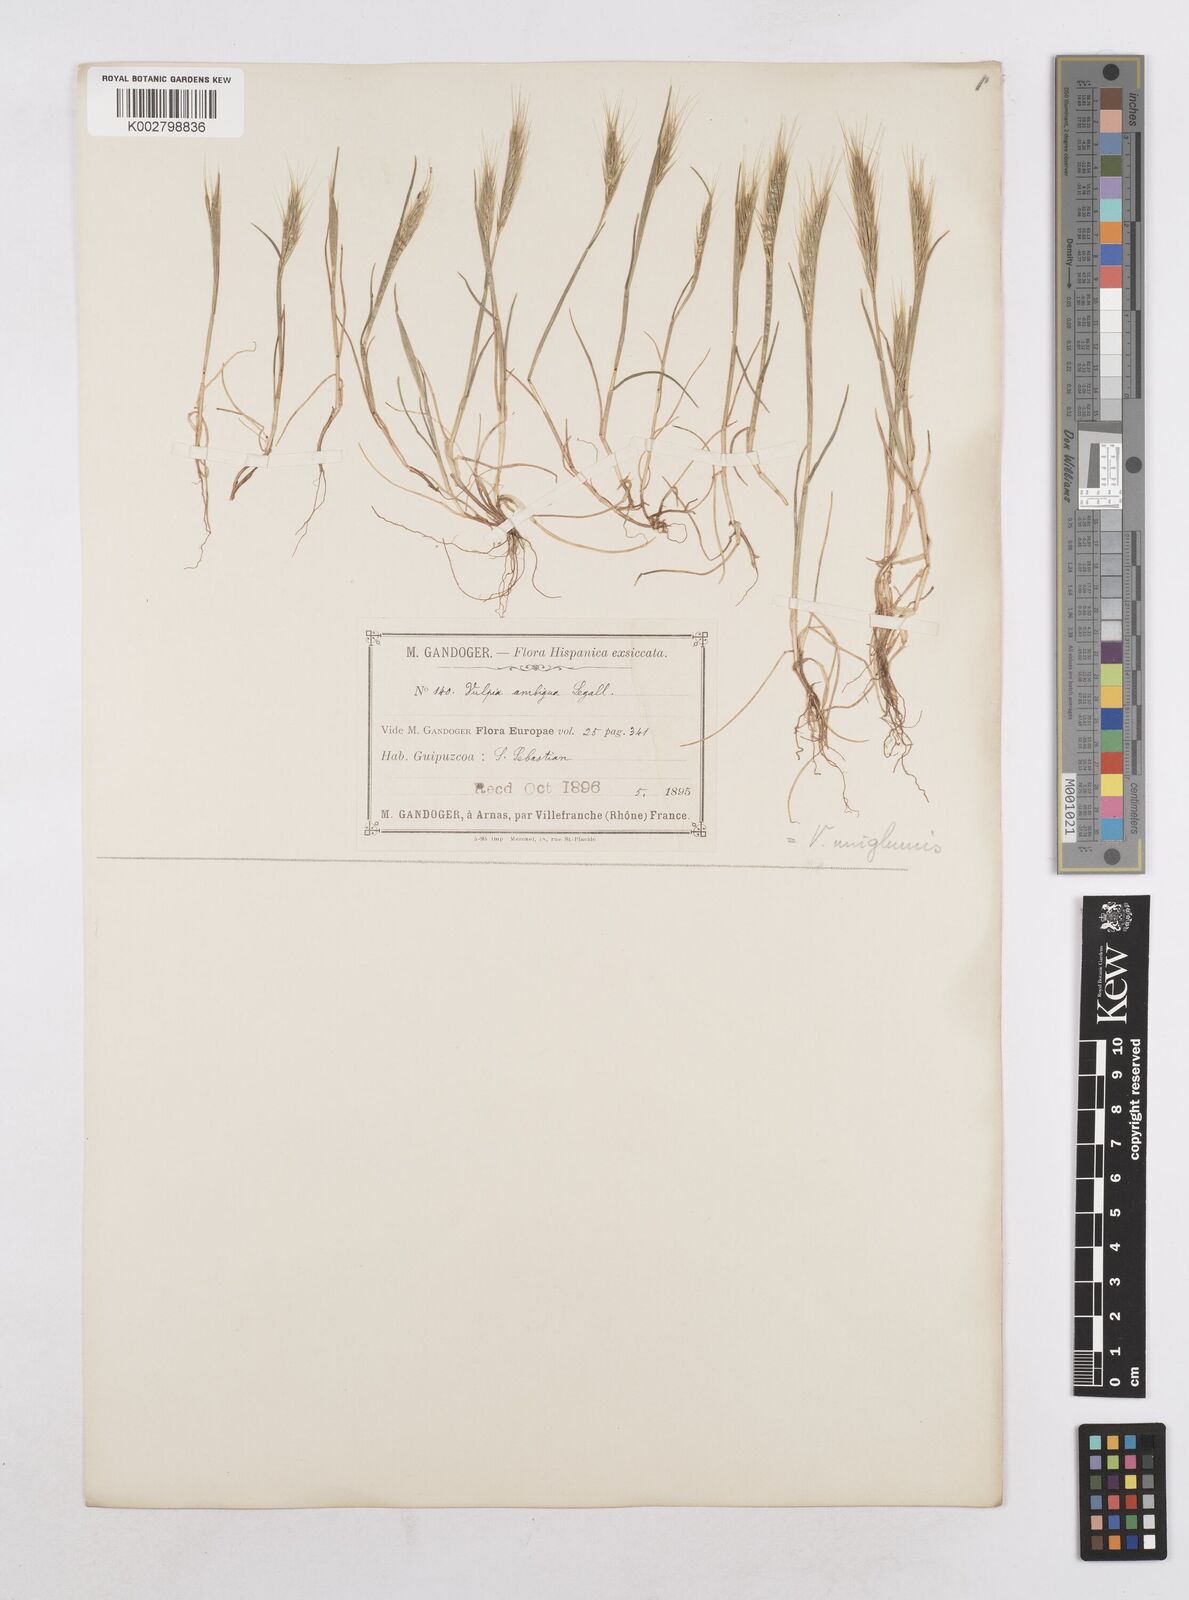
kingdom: Plantae
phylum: Tracheophyta
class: Liliopsida
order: Poales
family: Poaceae
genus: Festuca
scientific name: Festuca membranacea
